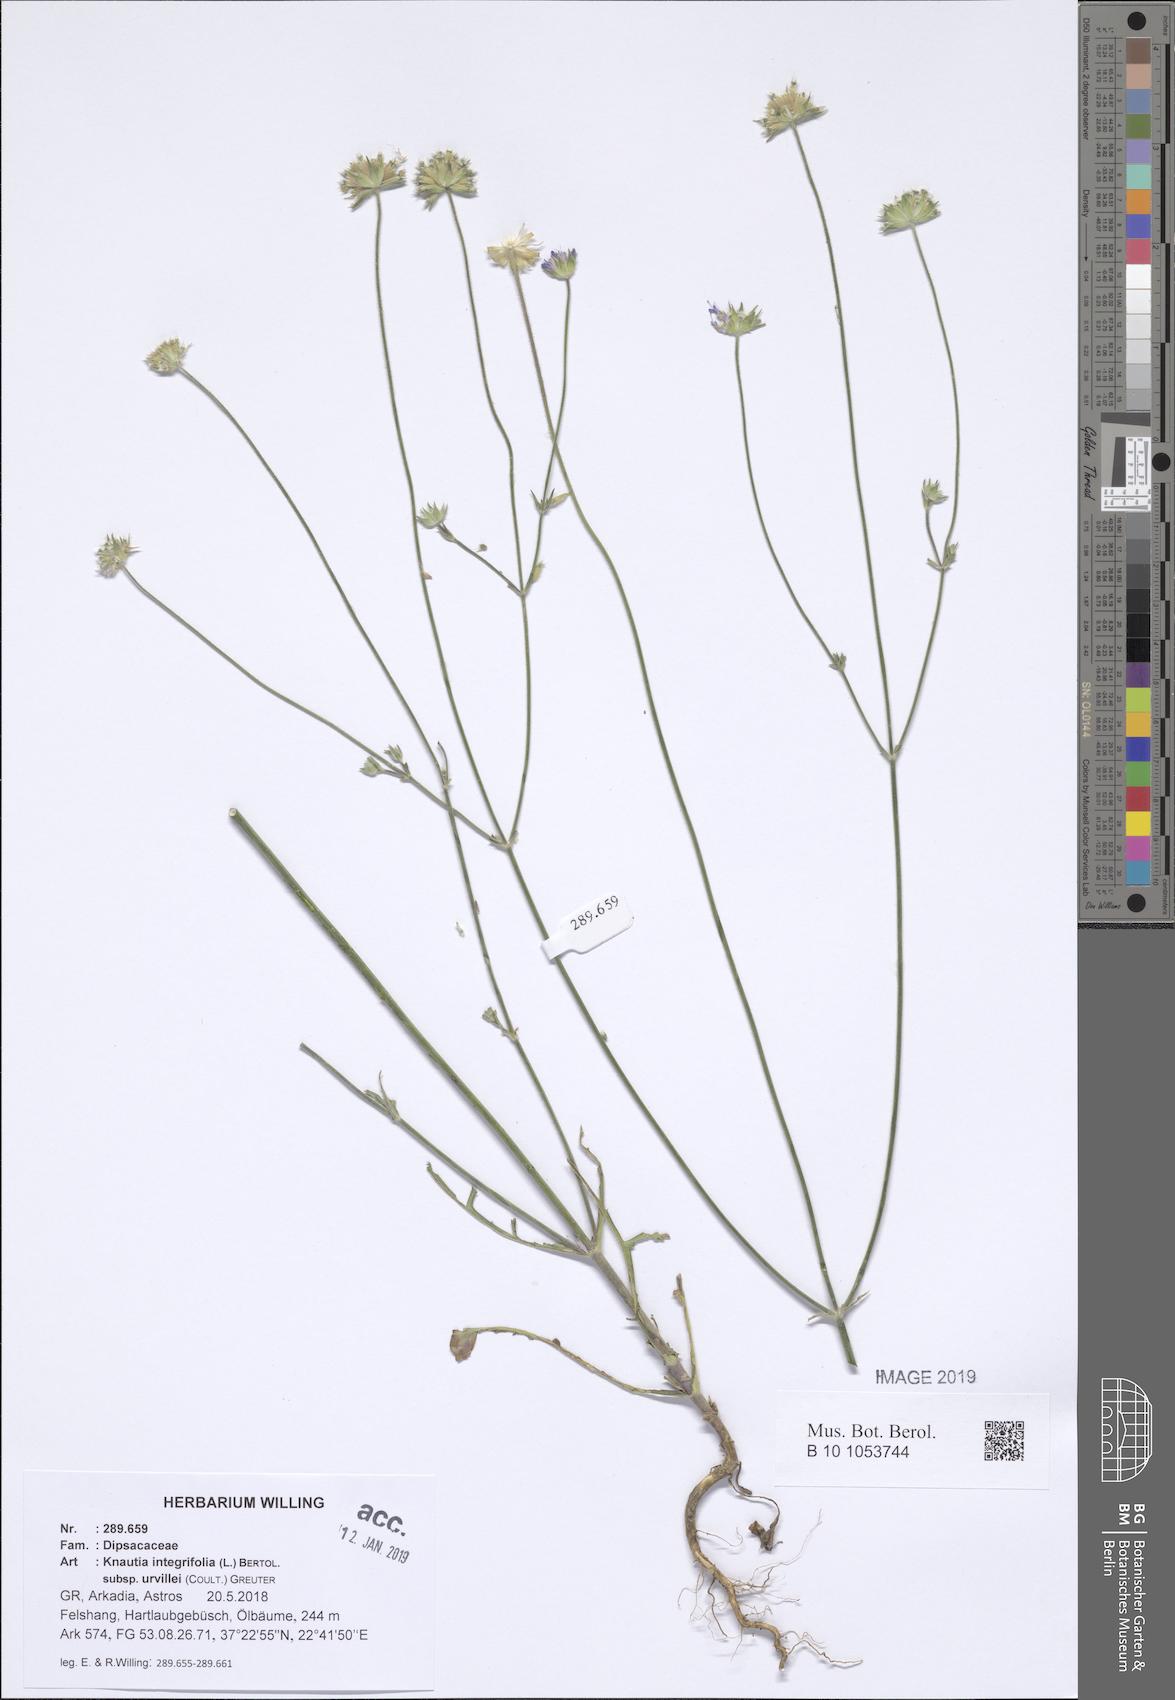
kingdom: Plantae
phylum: Tracheophyta
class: Magnoliopsida
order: Dipsacales
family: Caprifoliaceae
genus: Knautia
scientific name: Knautia integrifolia
